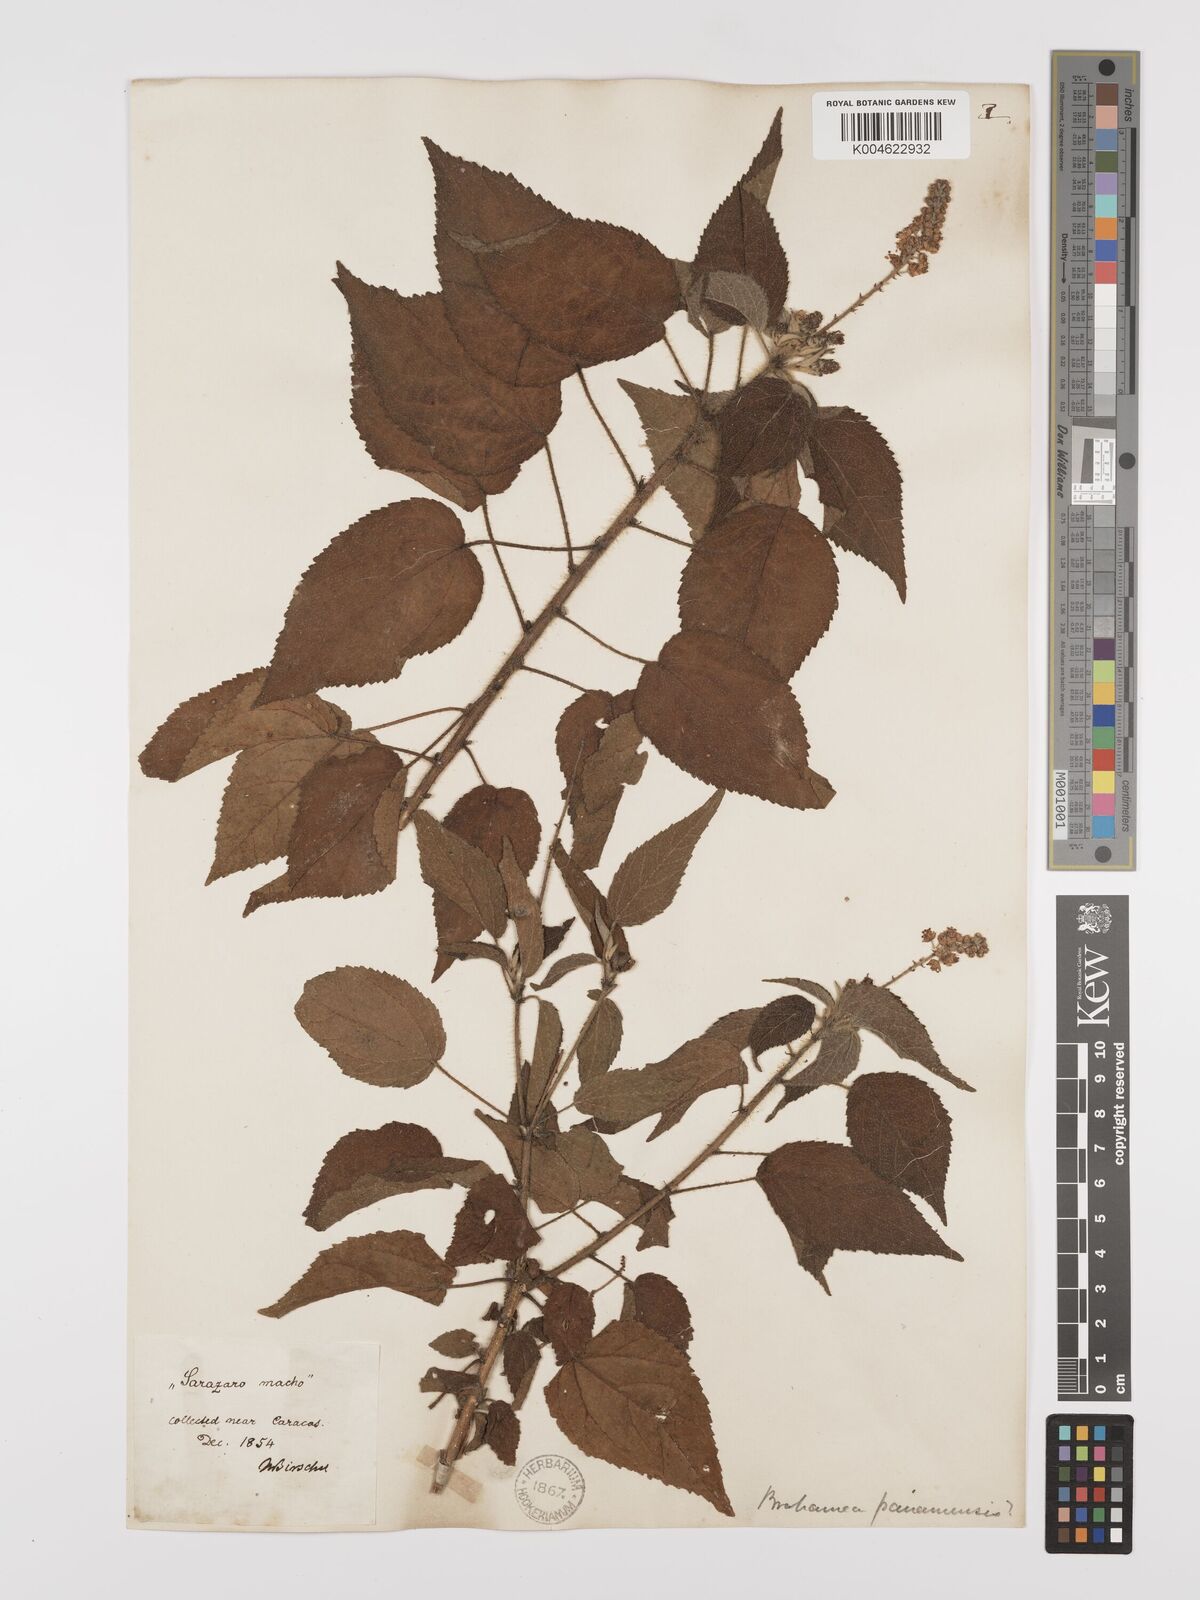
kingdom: Plantae
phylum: Tracheophyta
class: Magnoliopsida
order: Malpighiales
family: Euphorbiaceae
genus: Croton
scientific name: Croton
